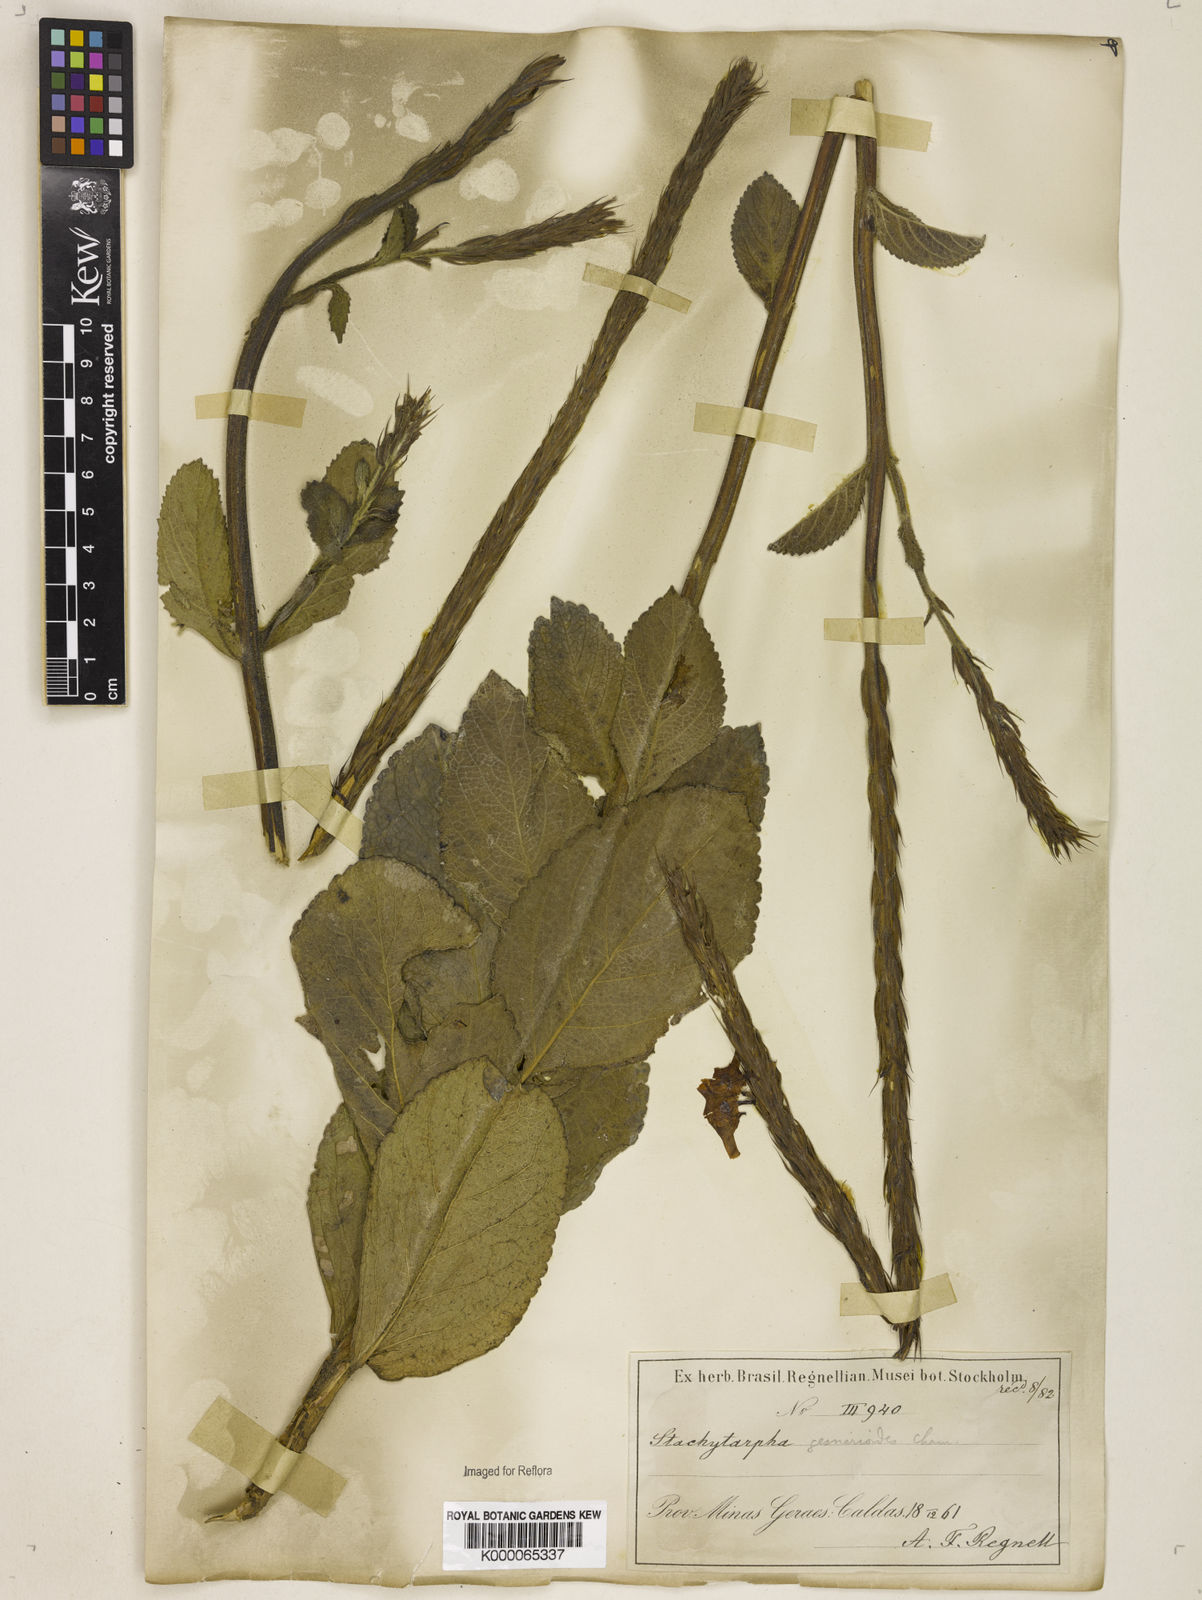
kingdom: Plantae
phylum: Tracheophyta
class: Magnoliopsida
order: Lamiales
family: Verbenaceae
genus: Stachytarpheta
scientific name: Stachytarpheta gesnerioides
